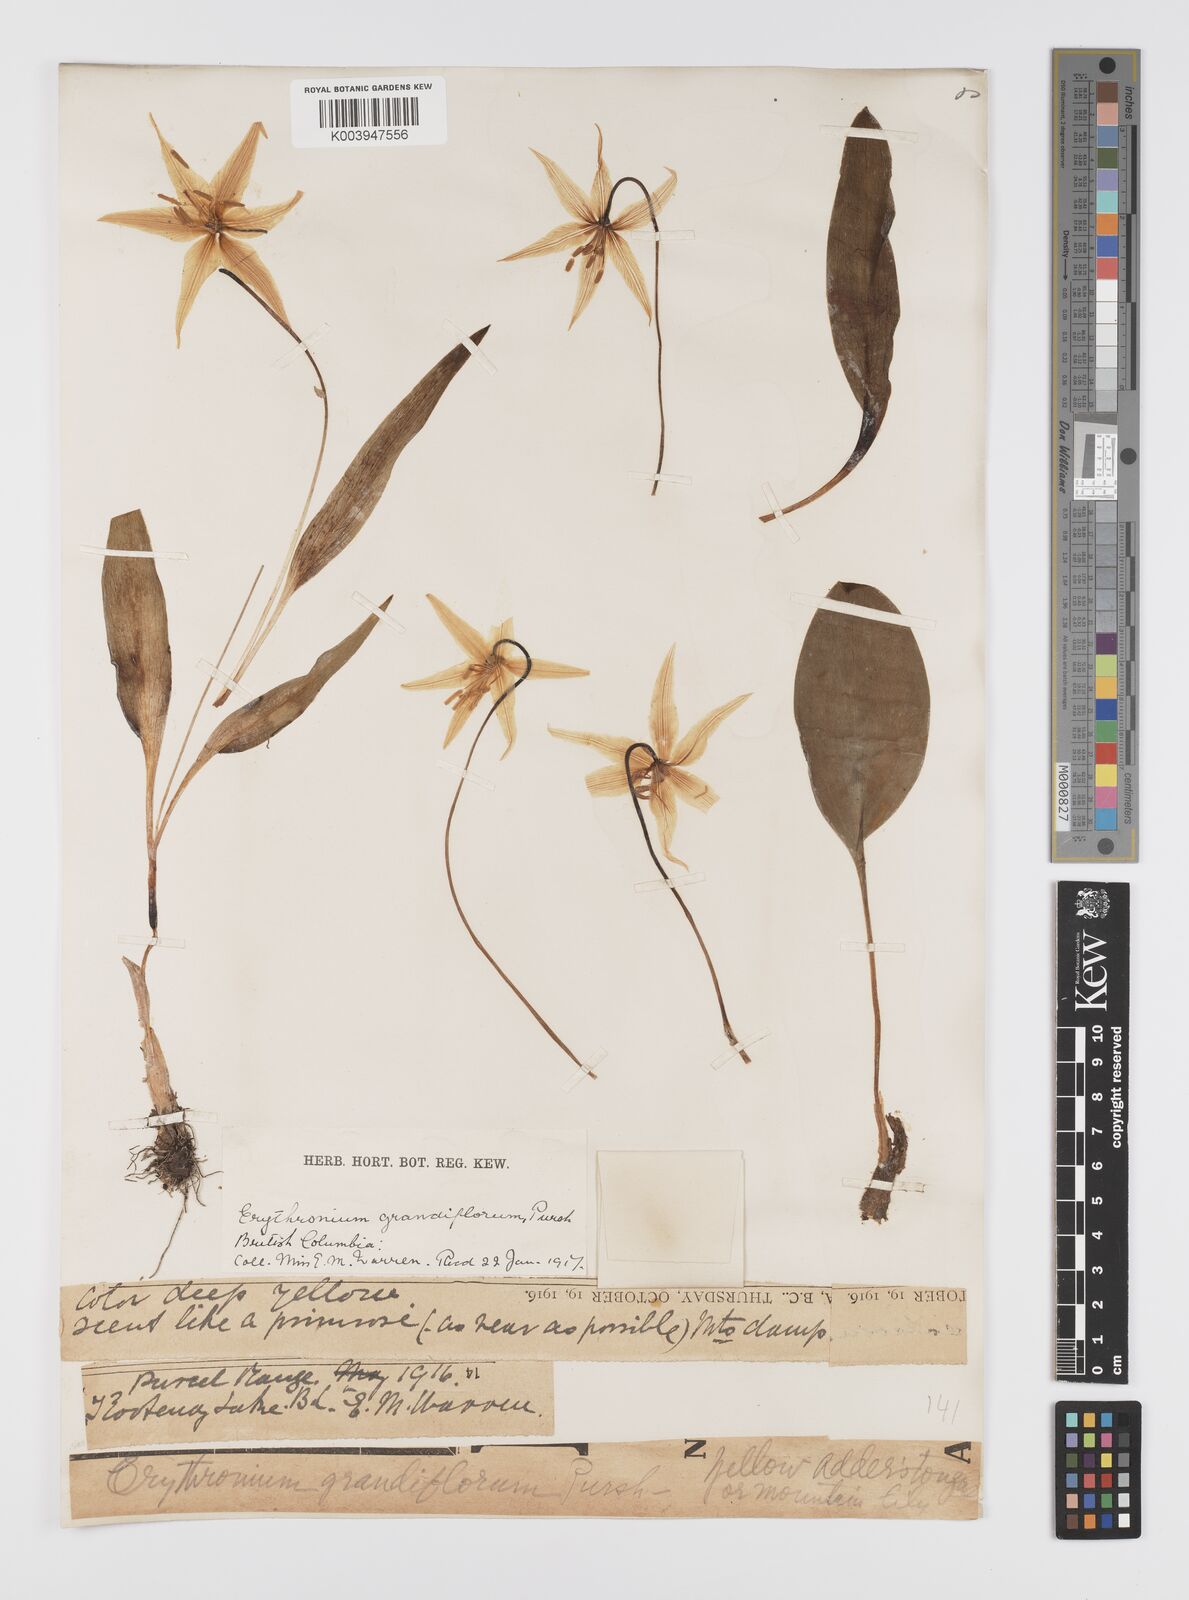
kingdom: Plantae
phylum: Tracheophyta
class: Liliopsida
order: Liliales
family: Liliaceae
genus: Erythronium
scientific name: Erythronium grandiflorum
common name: Avalanche-lily
